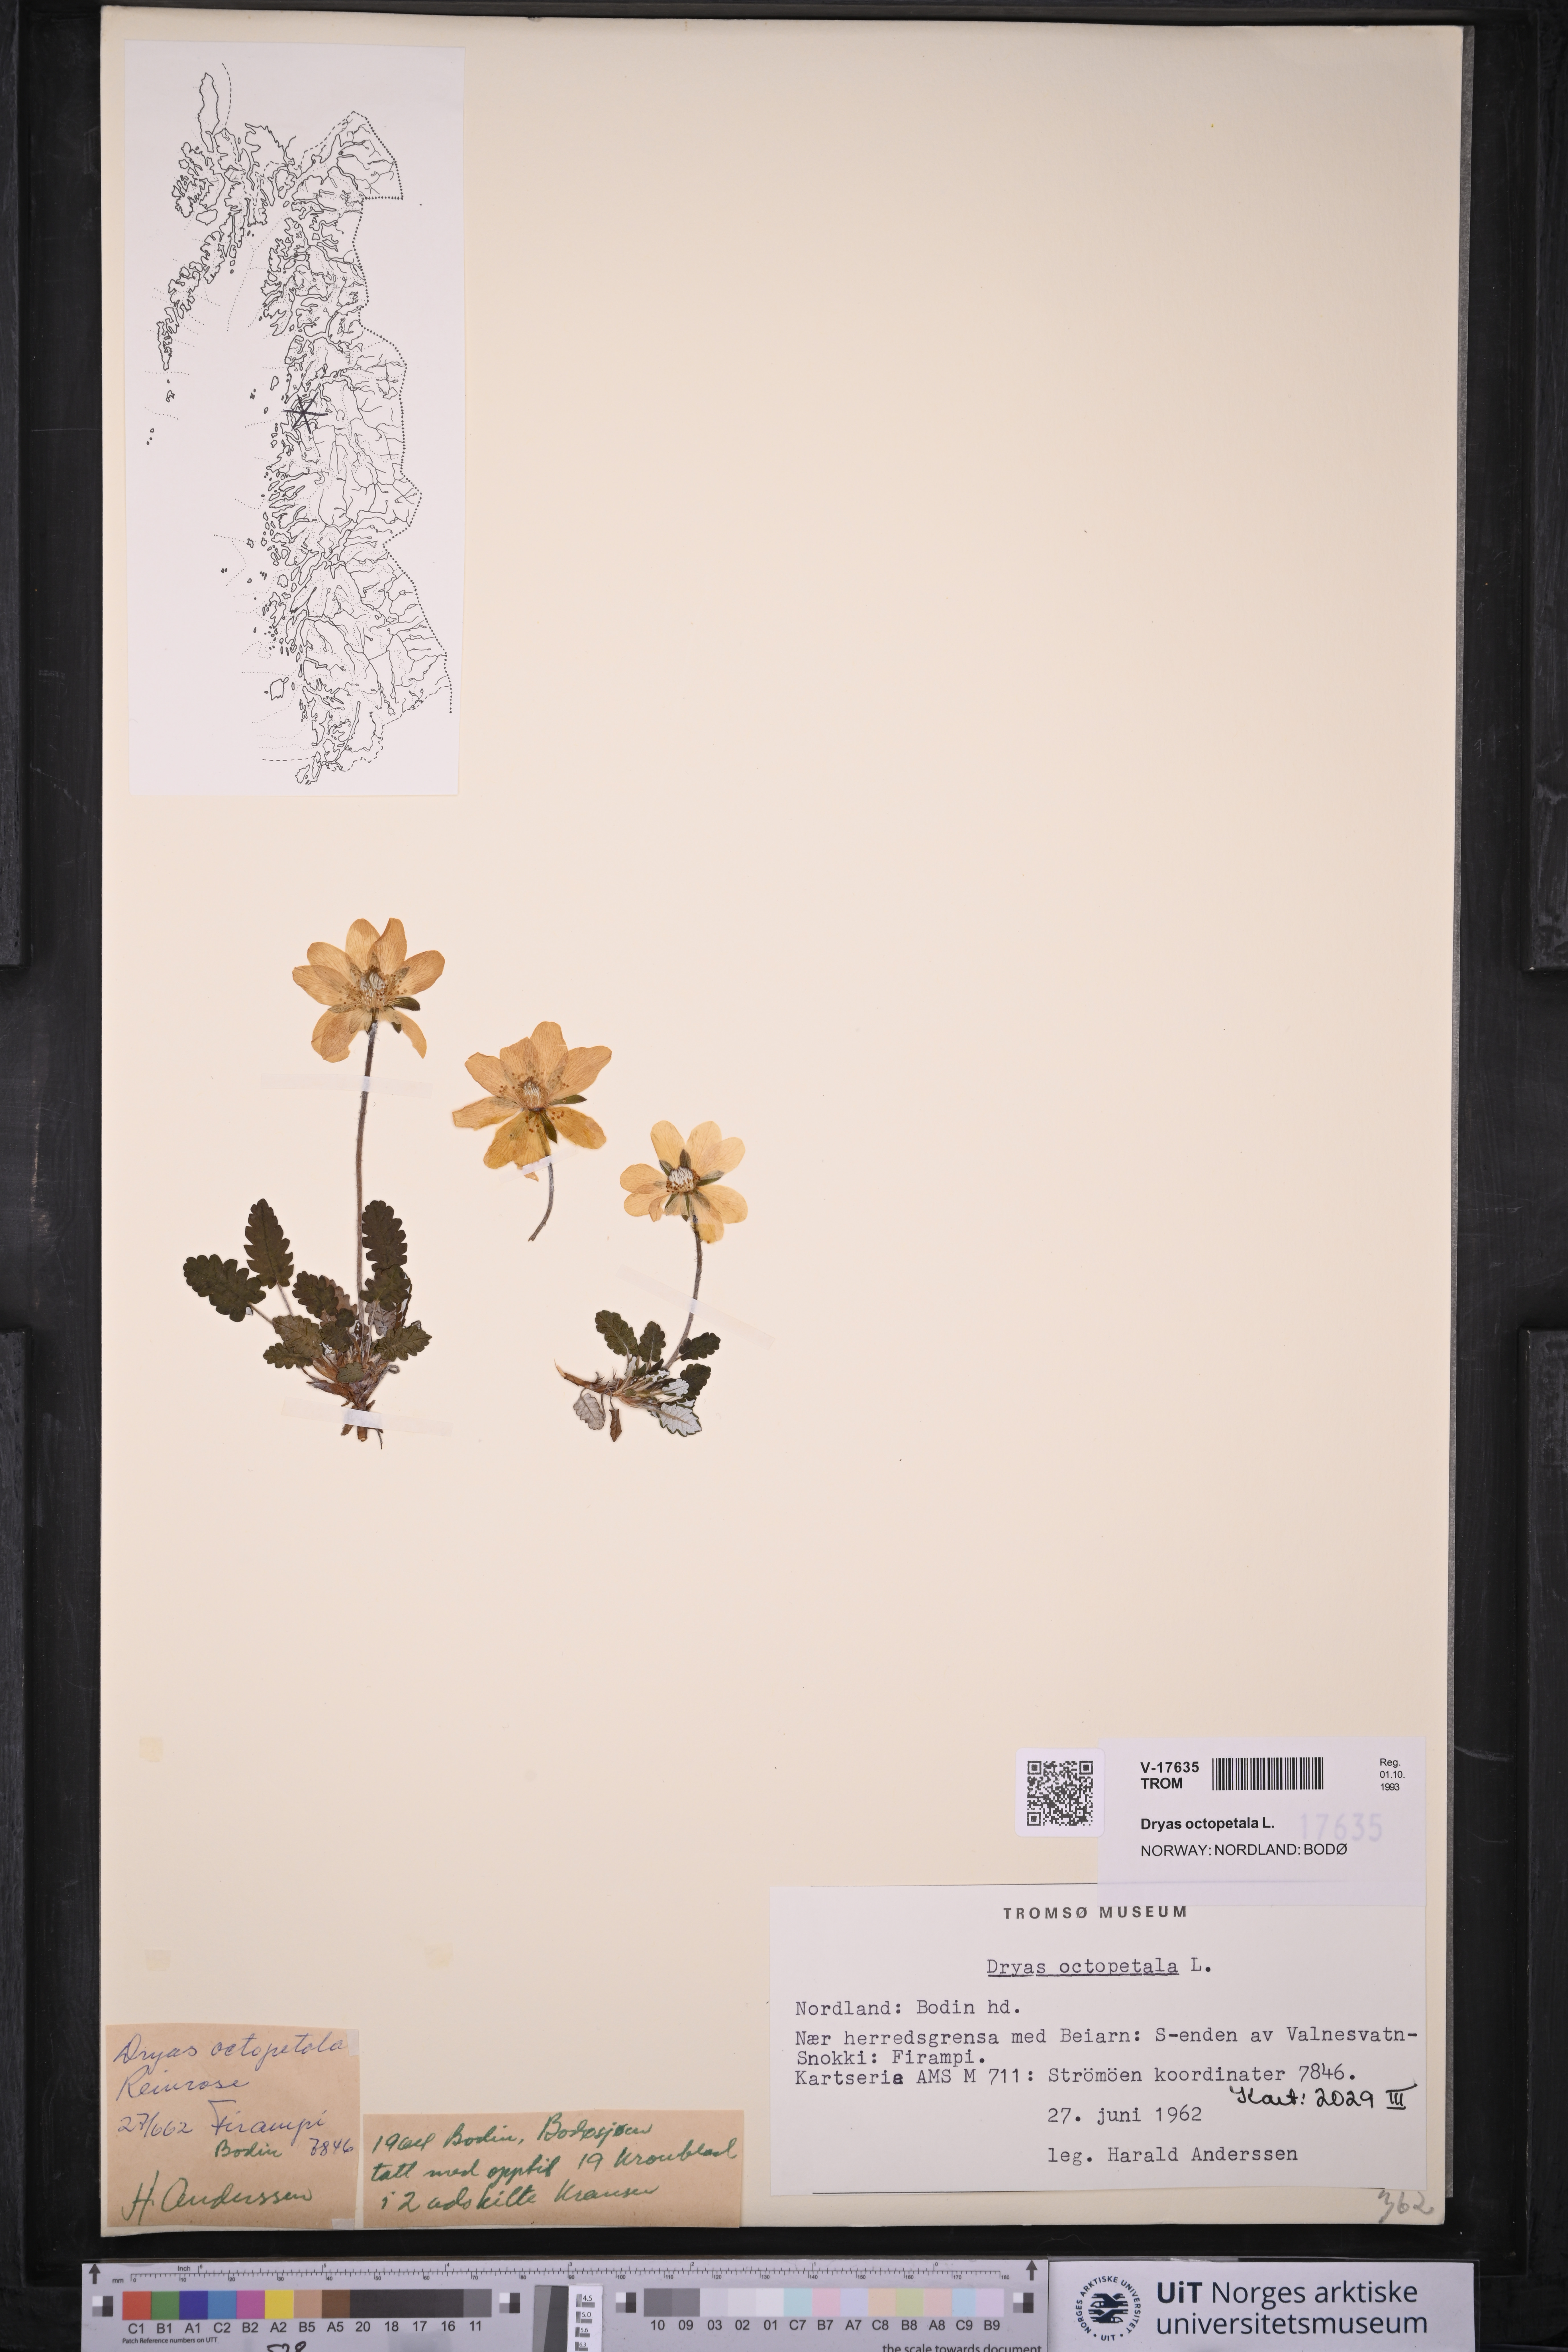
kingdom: Plantae
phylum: Tracheophyta
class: Magnoliopsida
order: Rosales
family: Rosaceae
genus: Dryas
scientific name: Dryas octopetala
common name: Eight-petal mountain-avens
